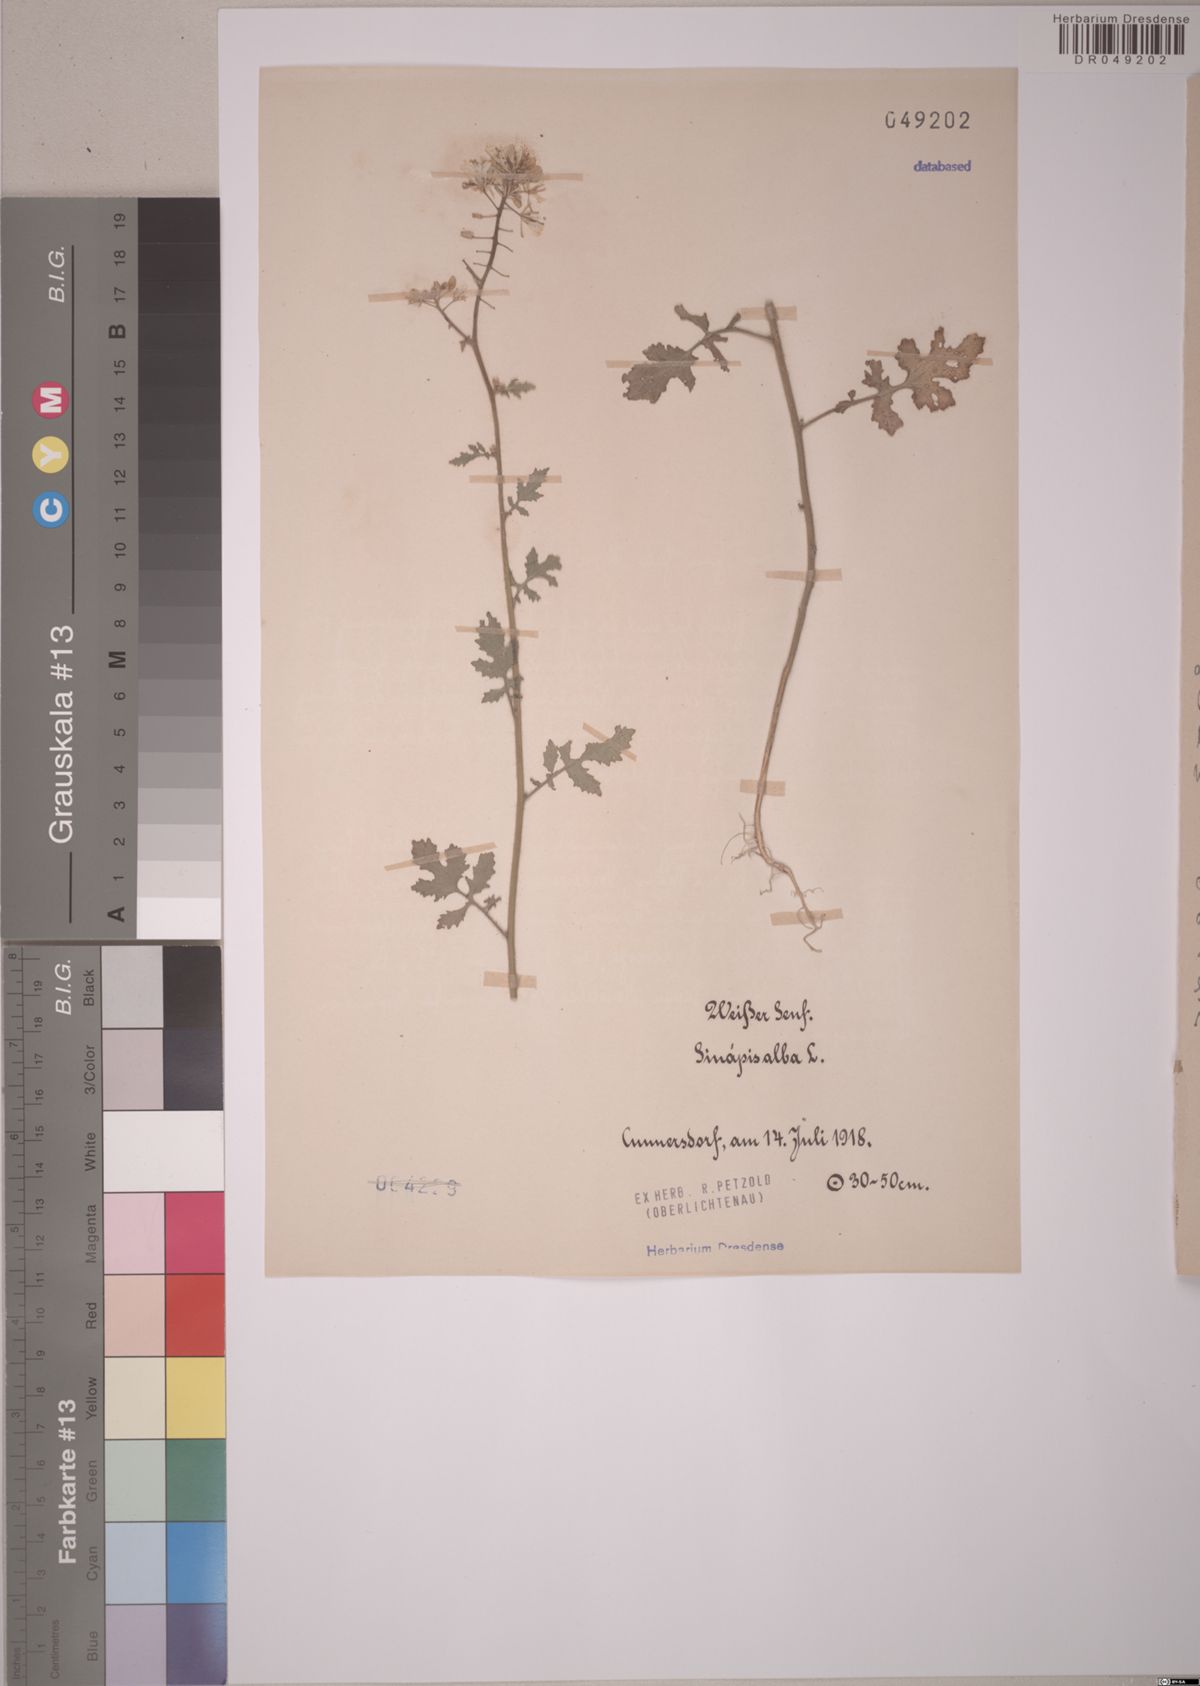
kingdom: Plantae
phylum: Tracheophyta
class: Magnoliopsida
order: Brassicales
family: Brassicaceae
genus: Sinapis
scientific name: Sinapis alba
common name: White mustard
